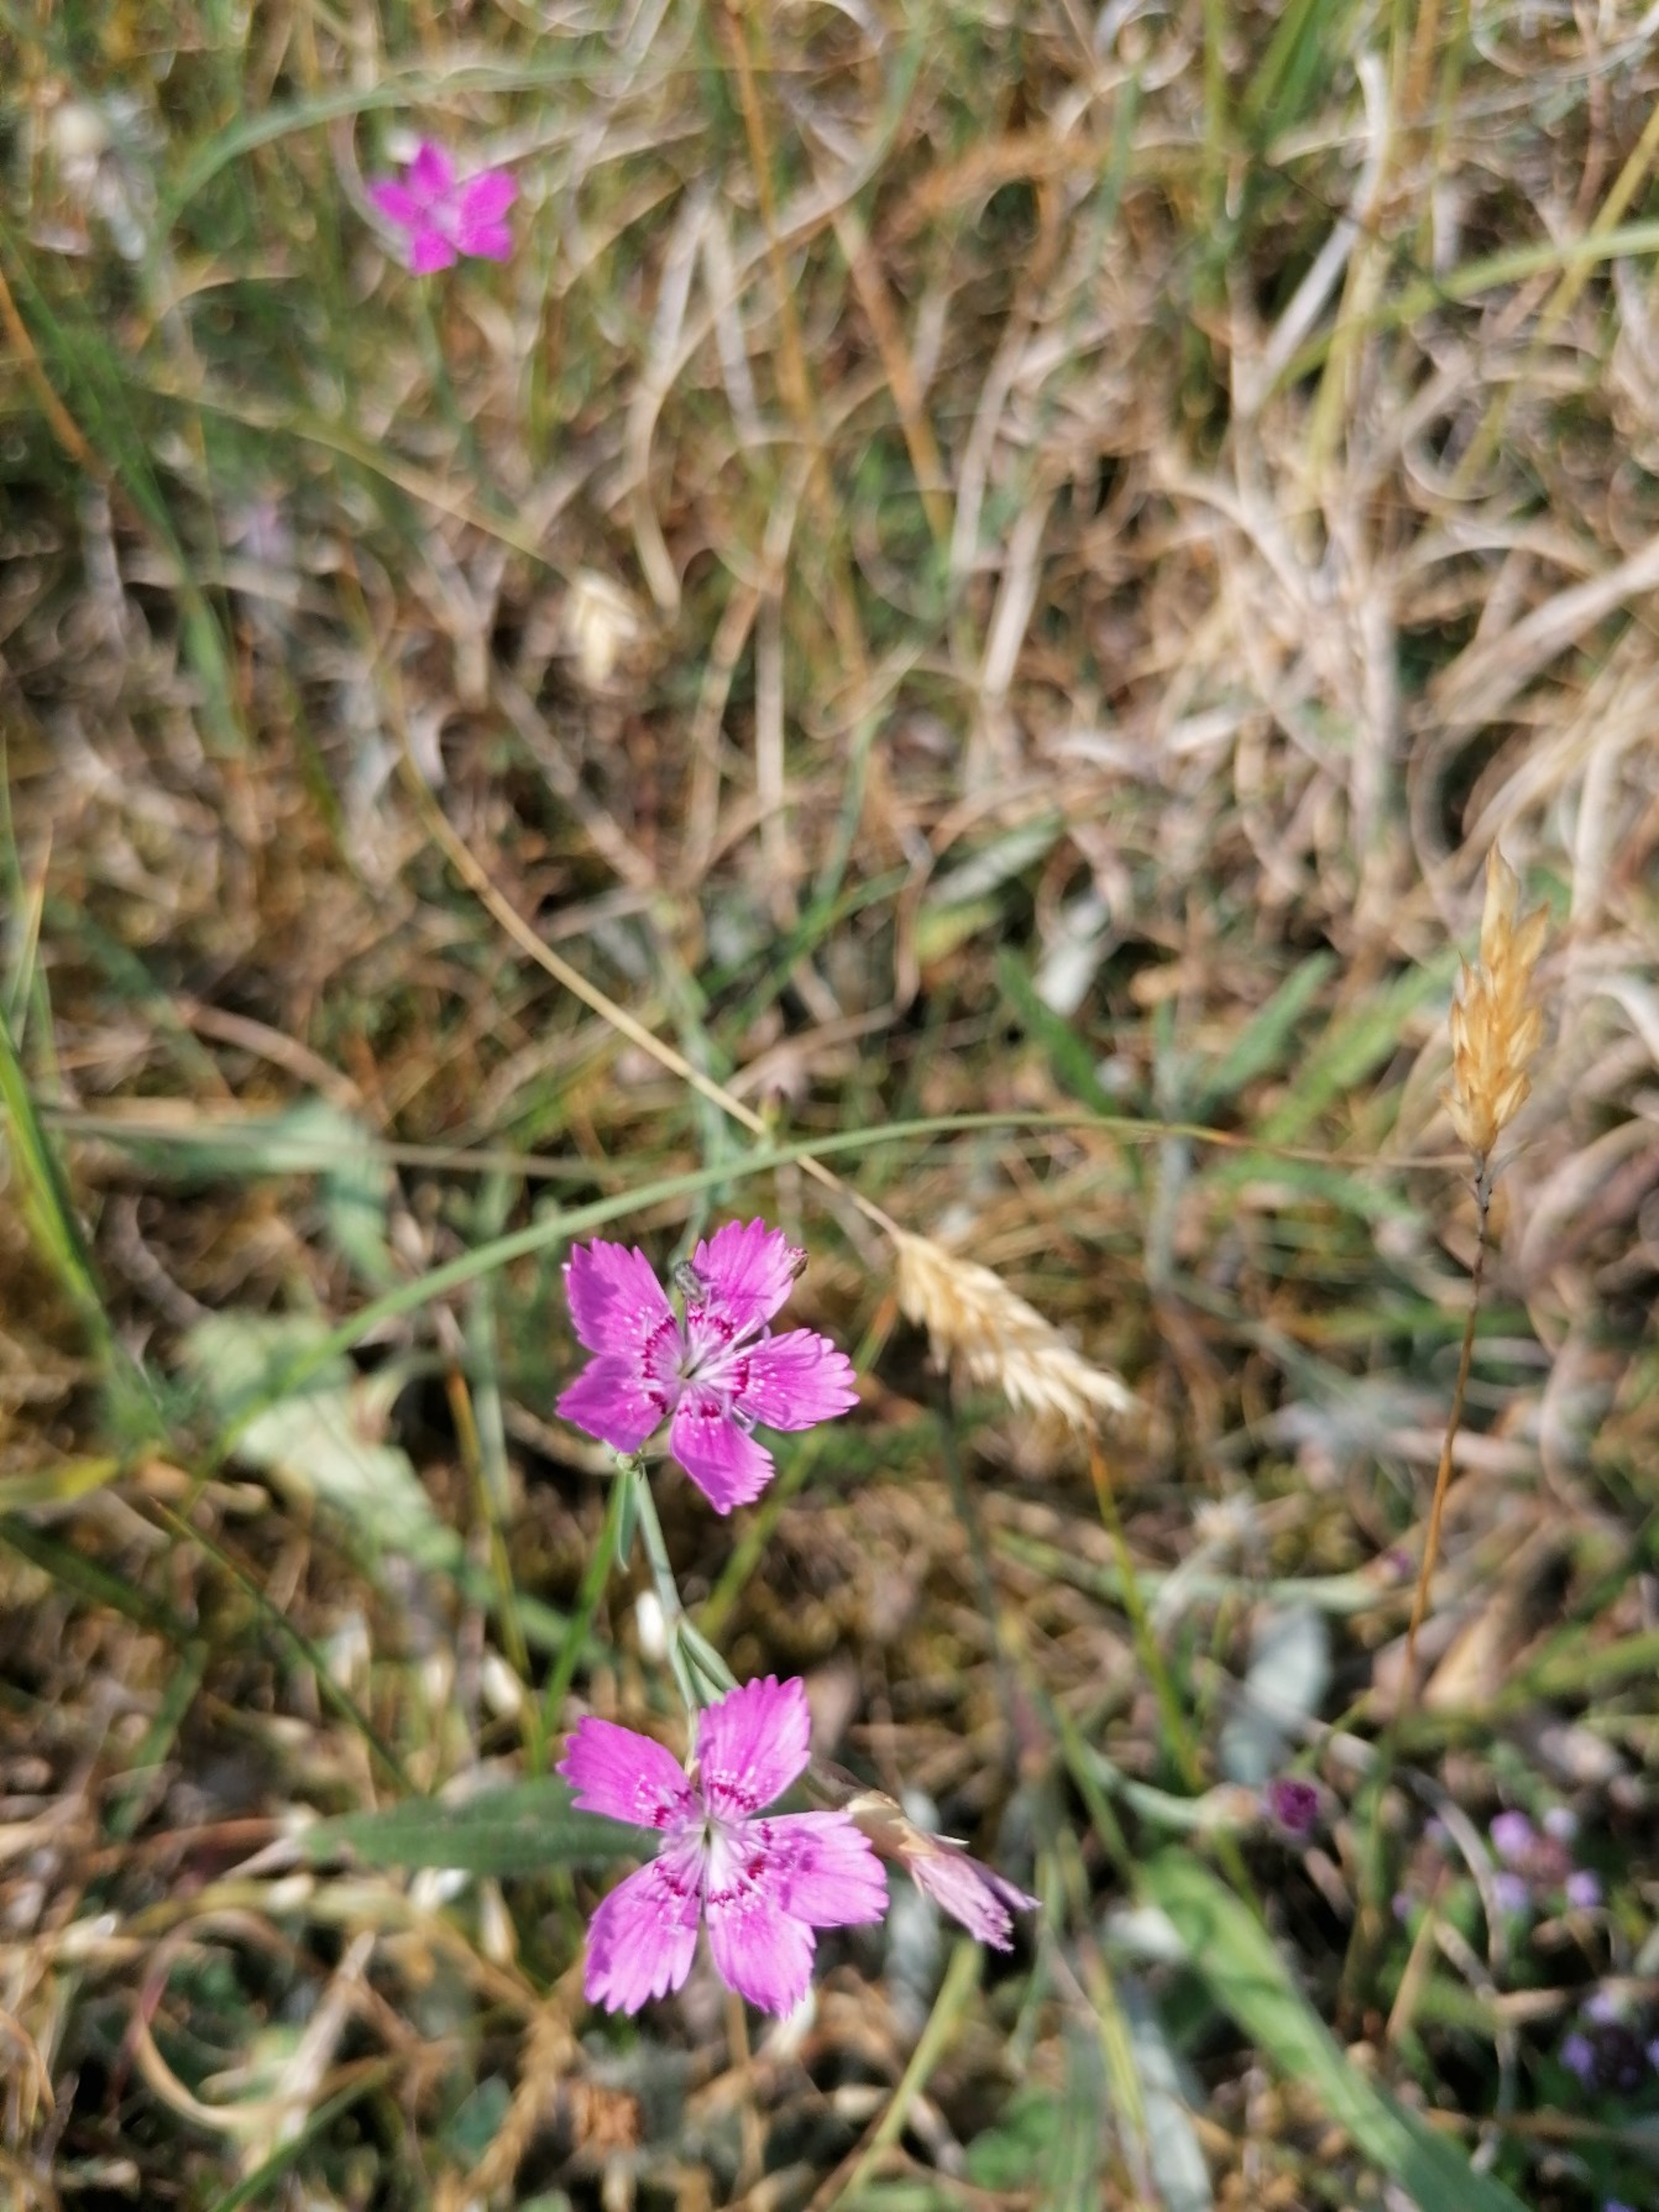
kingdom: Plantae
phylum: Tracheophyta
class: Magnoliopsida
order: Caryophyllales
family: Caryophyllaceae
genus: Dianthus
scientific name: Dianthus deltoides
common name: Bakke-nellike
